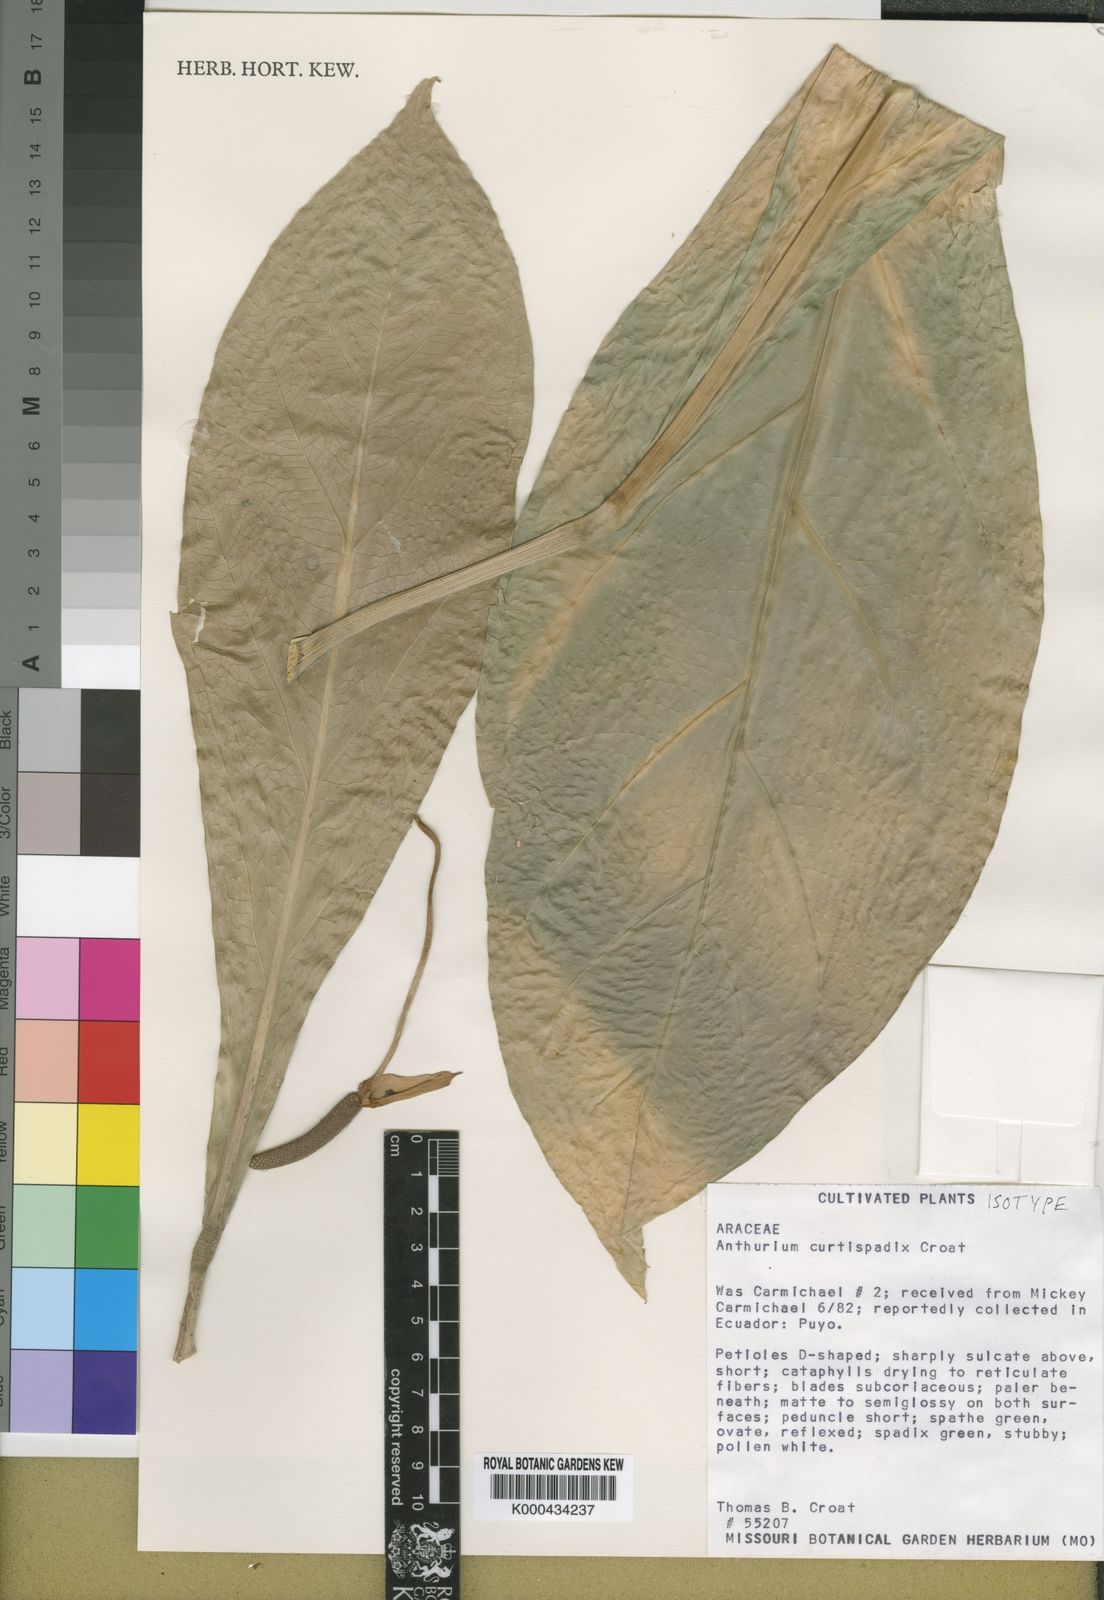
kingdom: Plantae
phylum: Tracheophyta
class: Liliopsida
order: Alismatales
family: Araceae
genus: Anthurium
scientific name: Anthurium curtispadix
